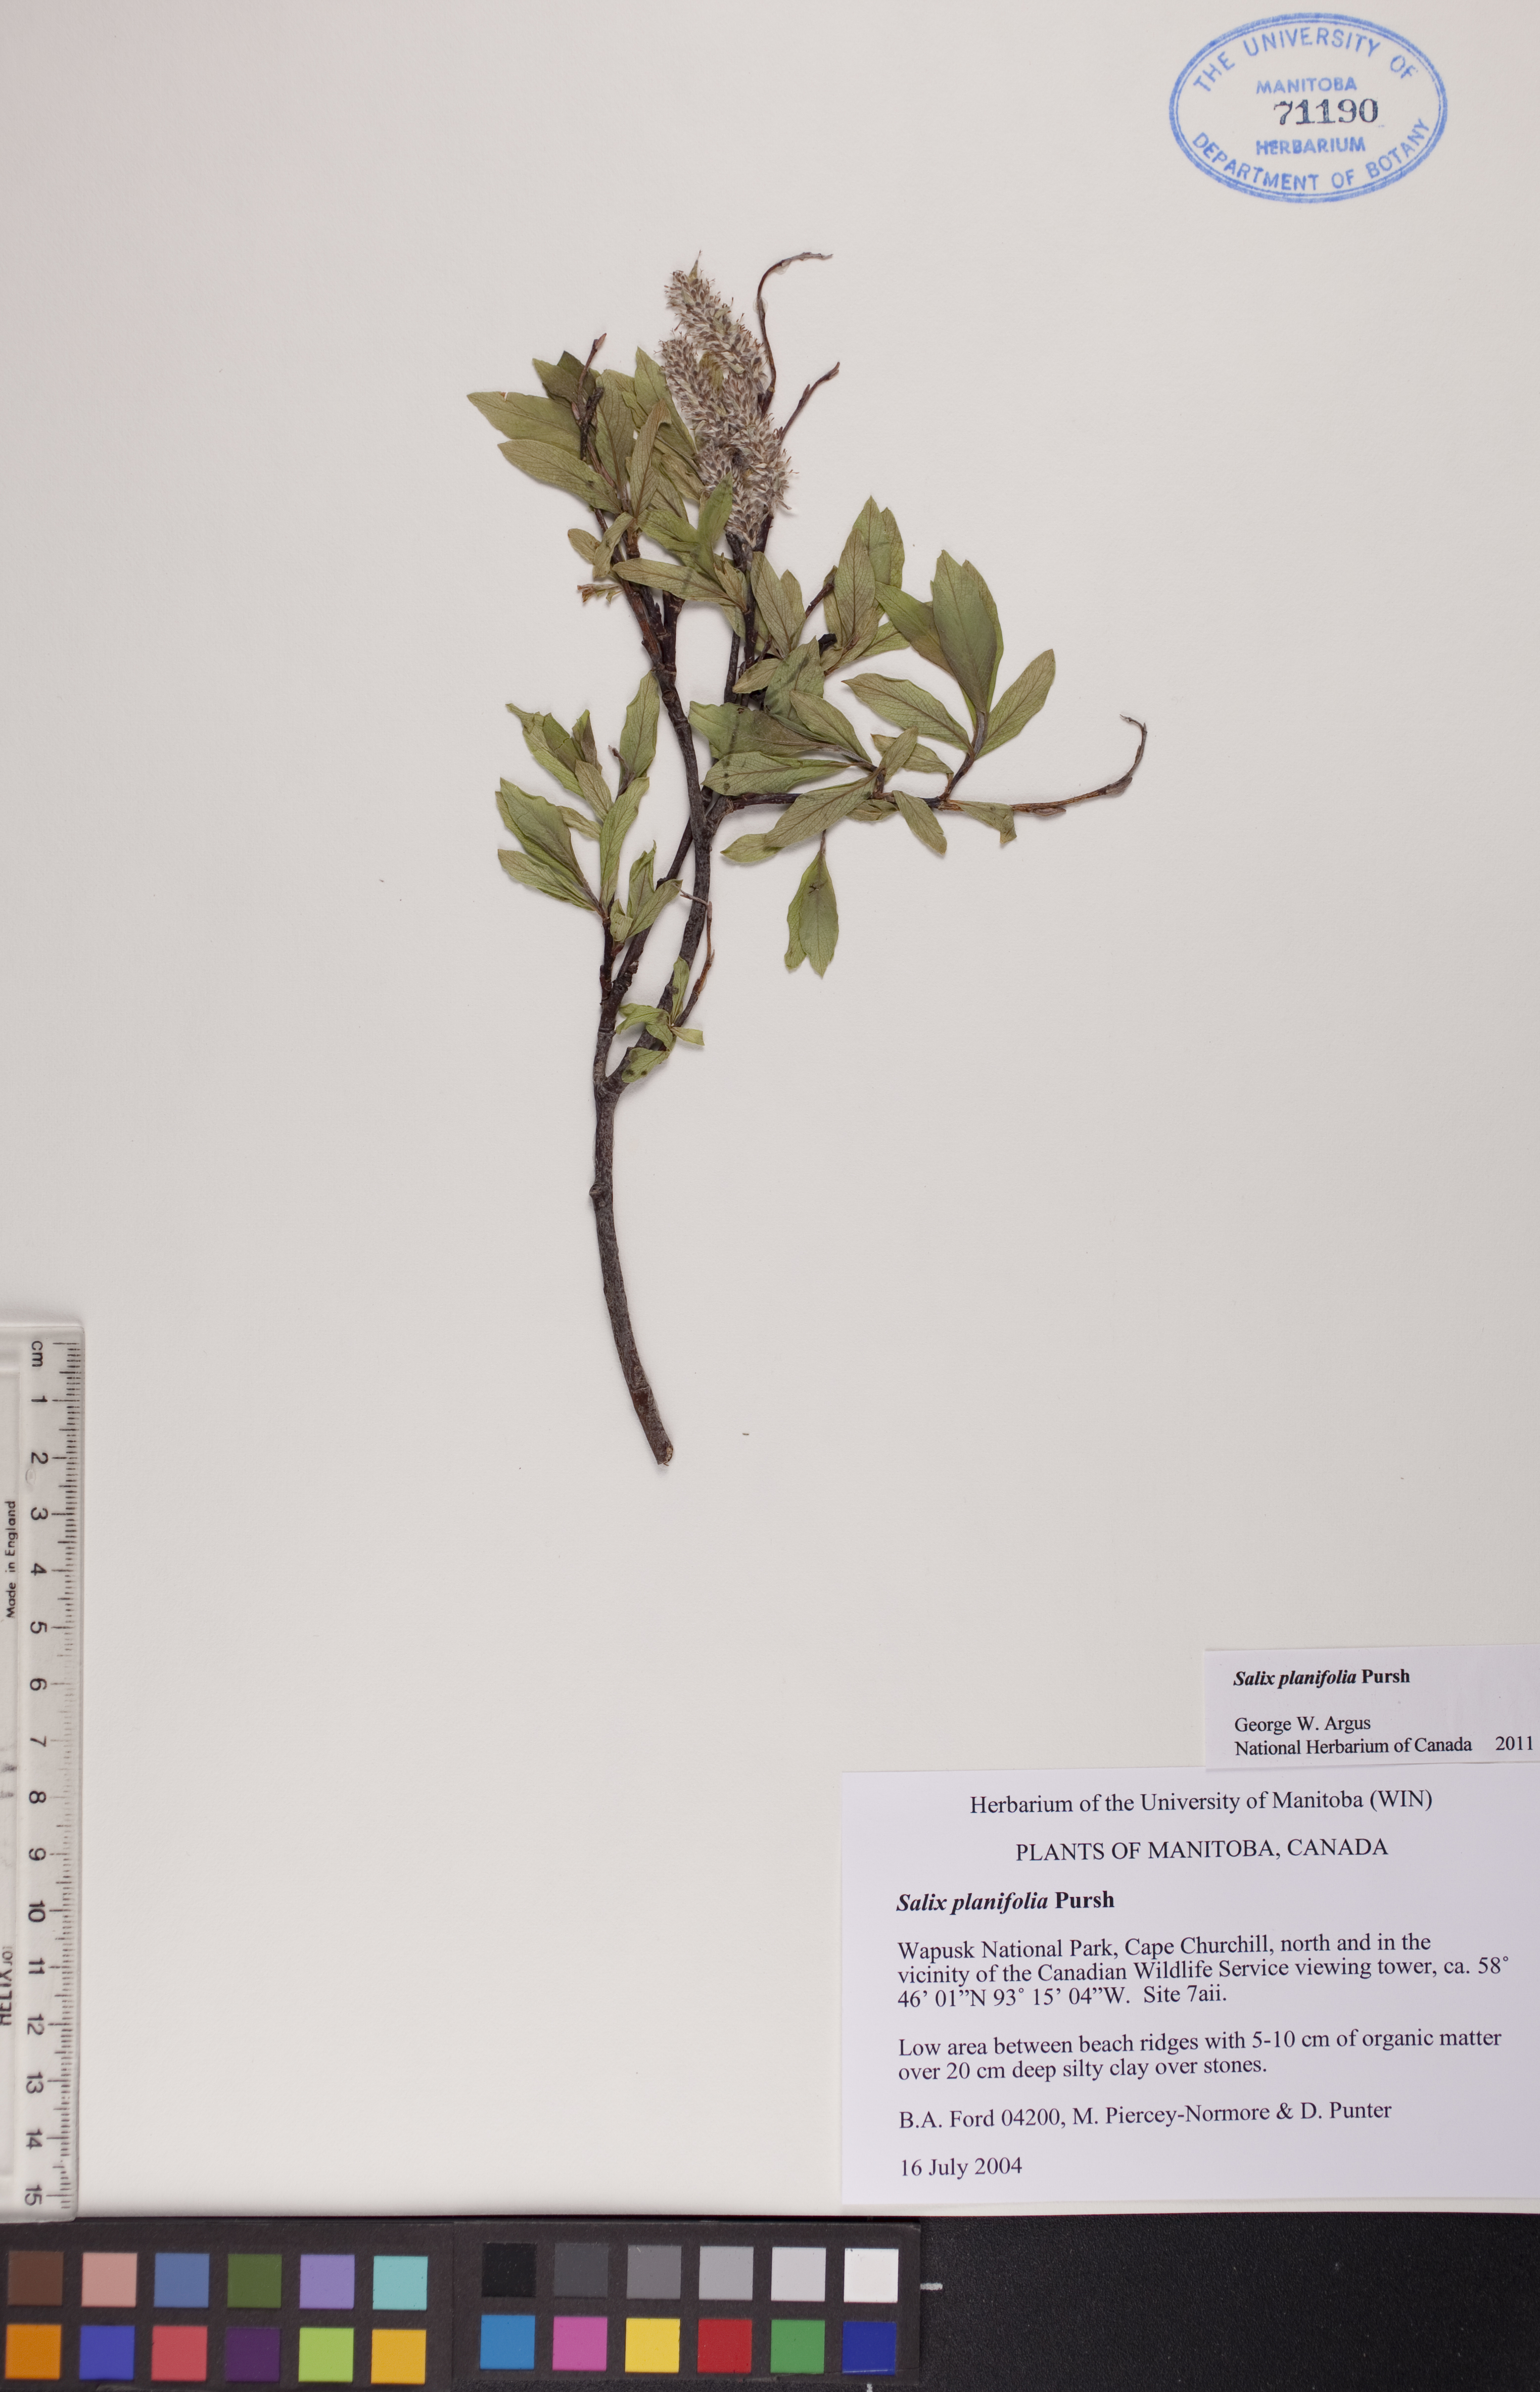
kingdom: Plantae
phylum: Tracheophyta
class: Magnoliopsida
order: Malpighiales
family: Salicaceae
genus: Salix
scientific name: Salix planifolia
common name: Mountain willow
